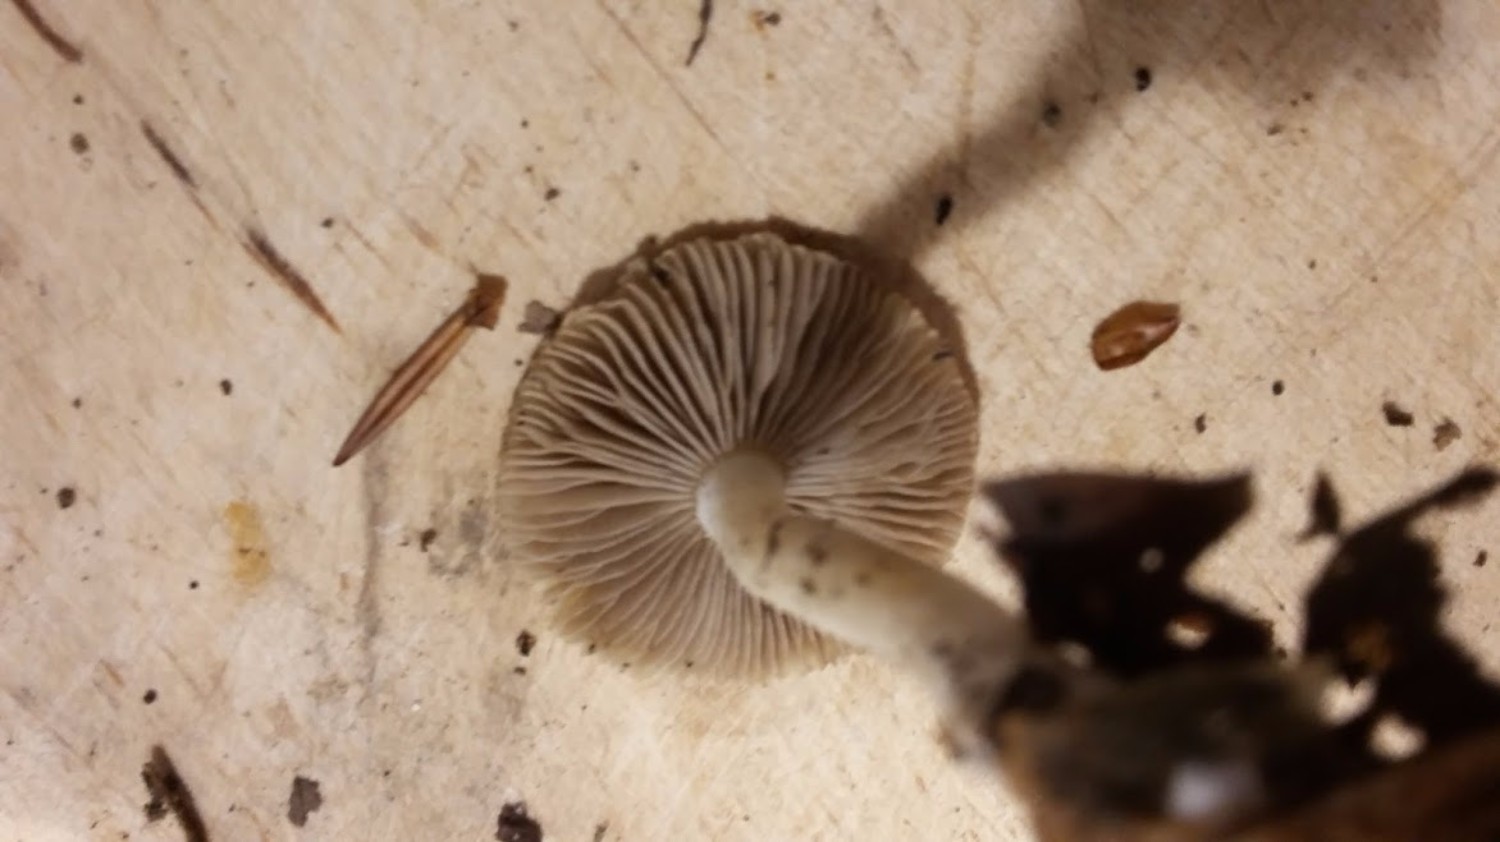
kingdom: Fungi
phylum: Basidiomycota
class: Agaricomycetes
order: Agaricales
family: Inocybaceae
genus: Inocybe
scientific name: Inocybe
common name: trævlhat
